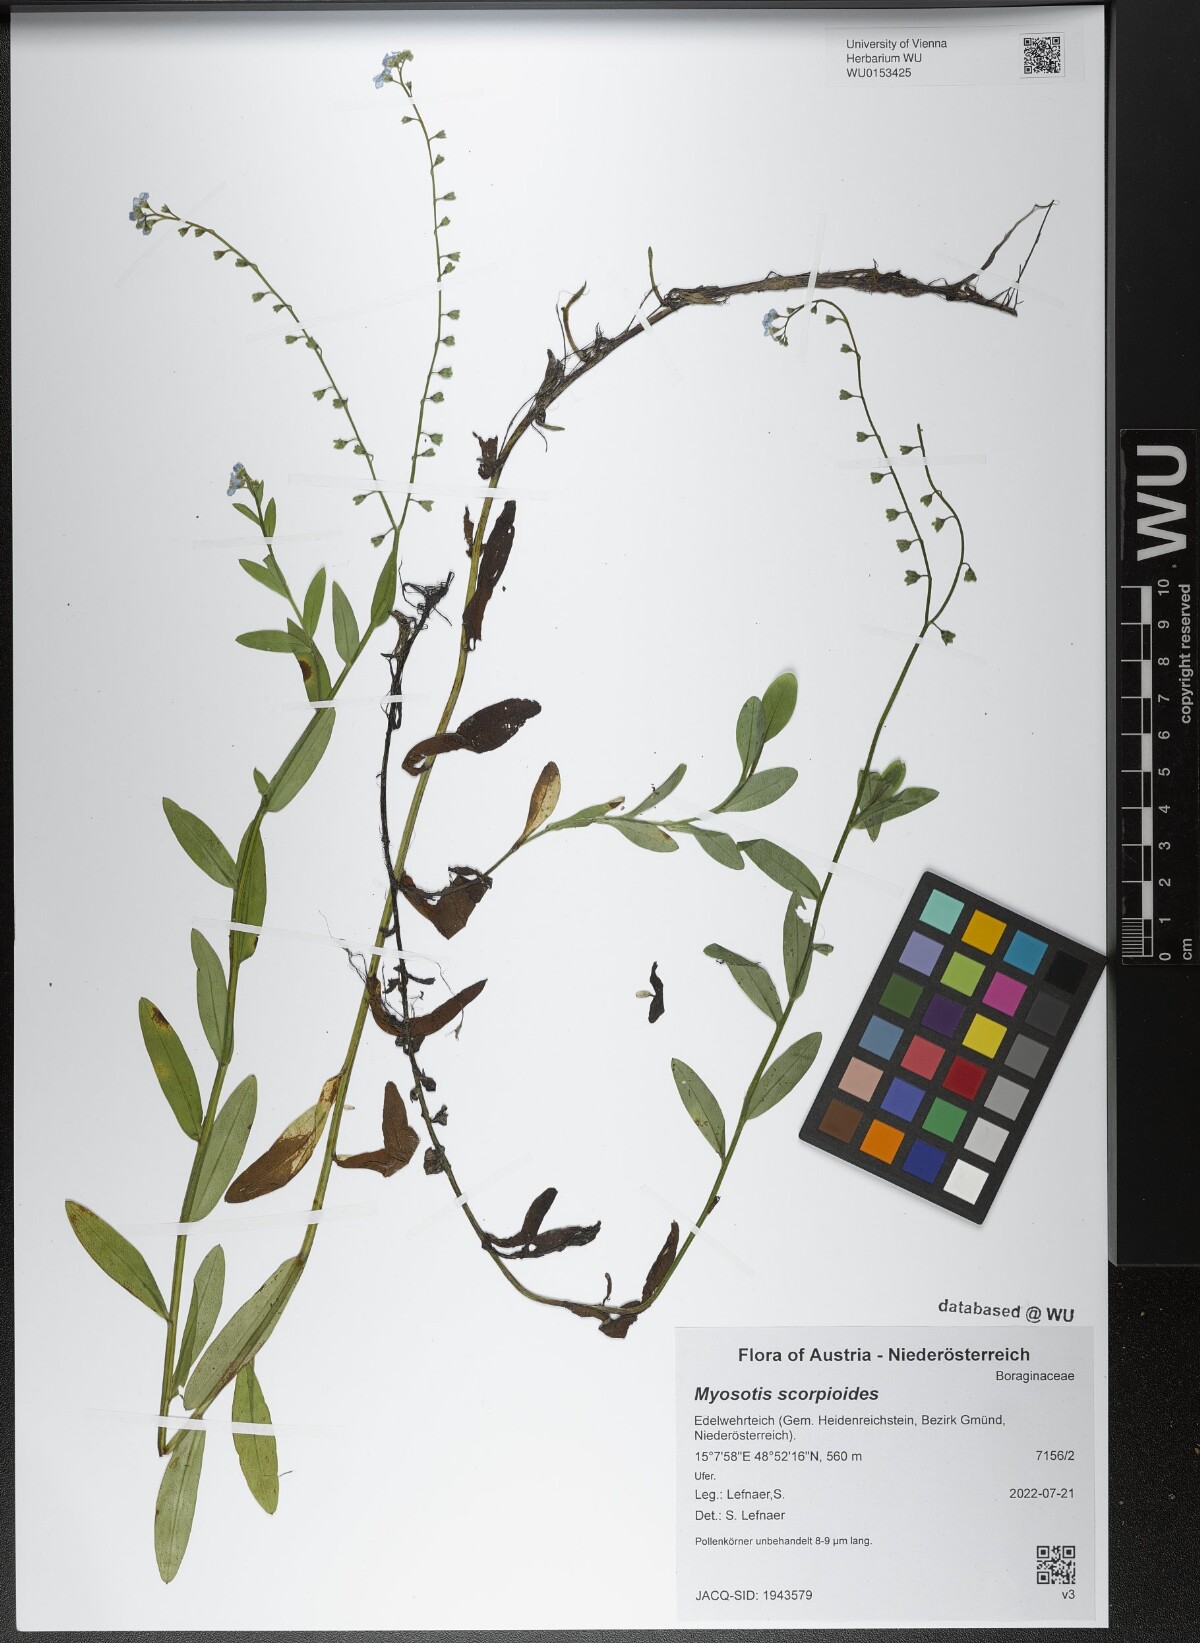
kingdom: Plantae
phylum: Tracheophyta
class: Magnoliopsida
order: Boraginales
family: Boraginaceae
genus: Myosotis
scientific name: Myosotis scorpioides
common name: Water forget-me-not
